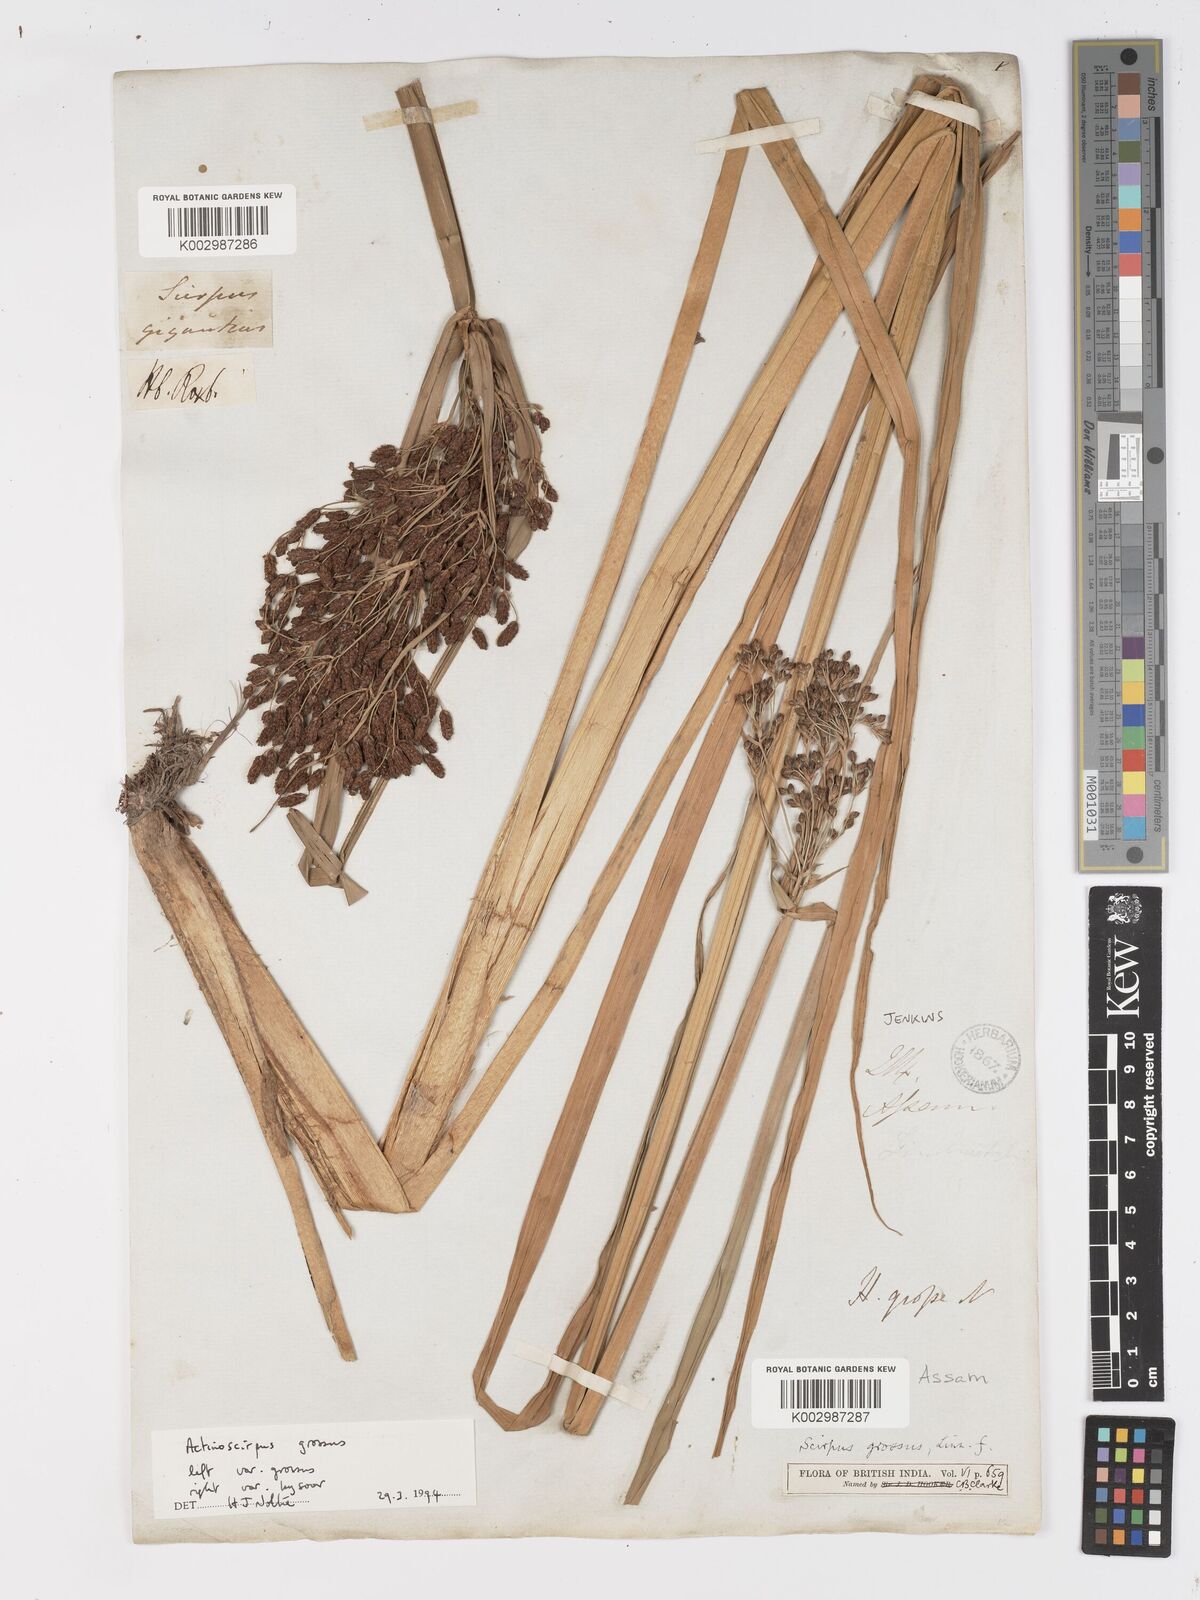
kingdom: Plantae
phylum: Tracheophyta
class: Liliopsida
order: Poales
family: Cyperaceae
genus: Actinoscirpus
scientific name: Actinoscirpus grossus
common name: Giant bur rush
